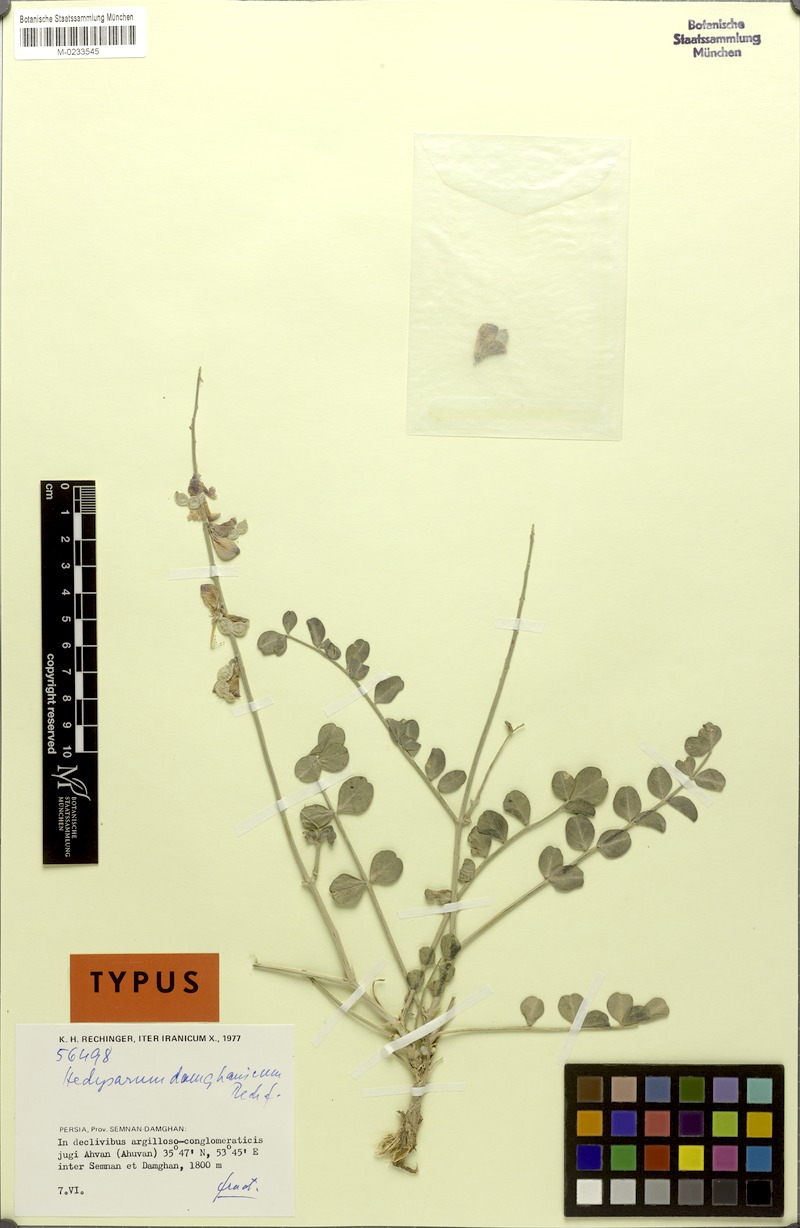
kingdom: Plantae
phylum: Tracheophyta
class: Magnoliopsida
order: Fabales
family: Fabaceae
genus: Hedysarum
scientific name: Hedysarum damghanicum
